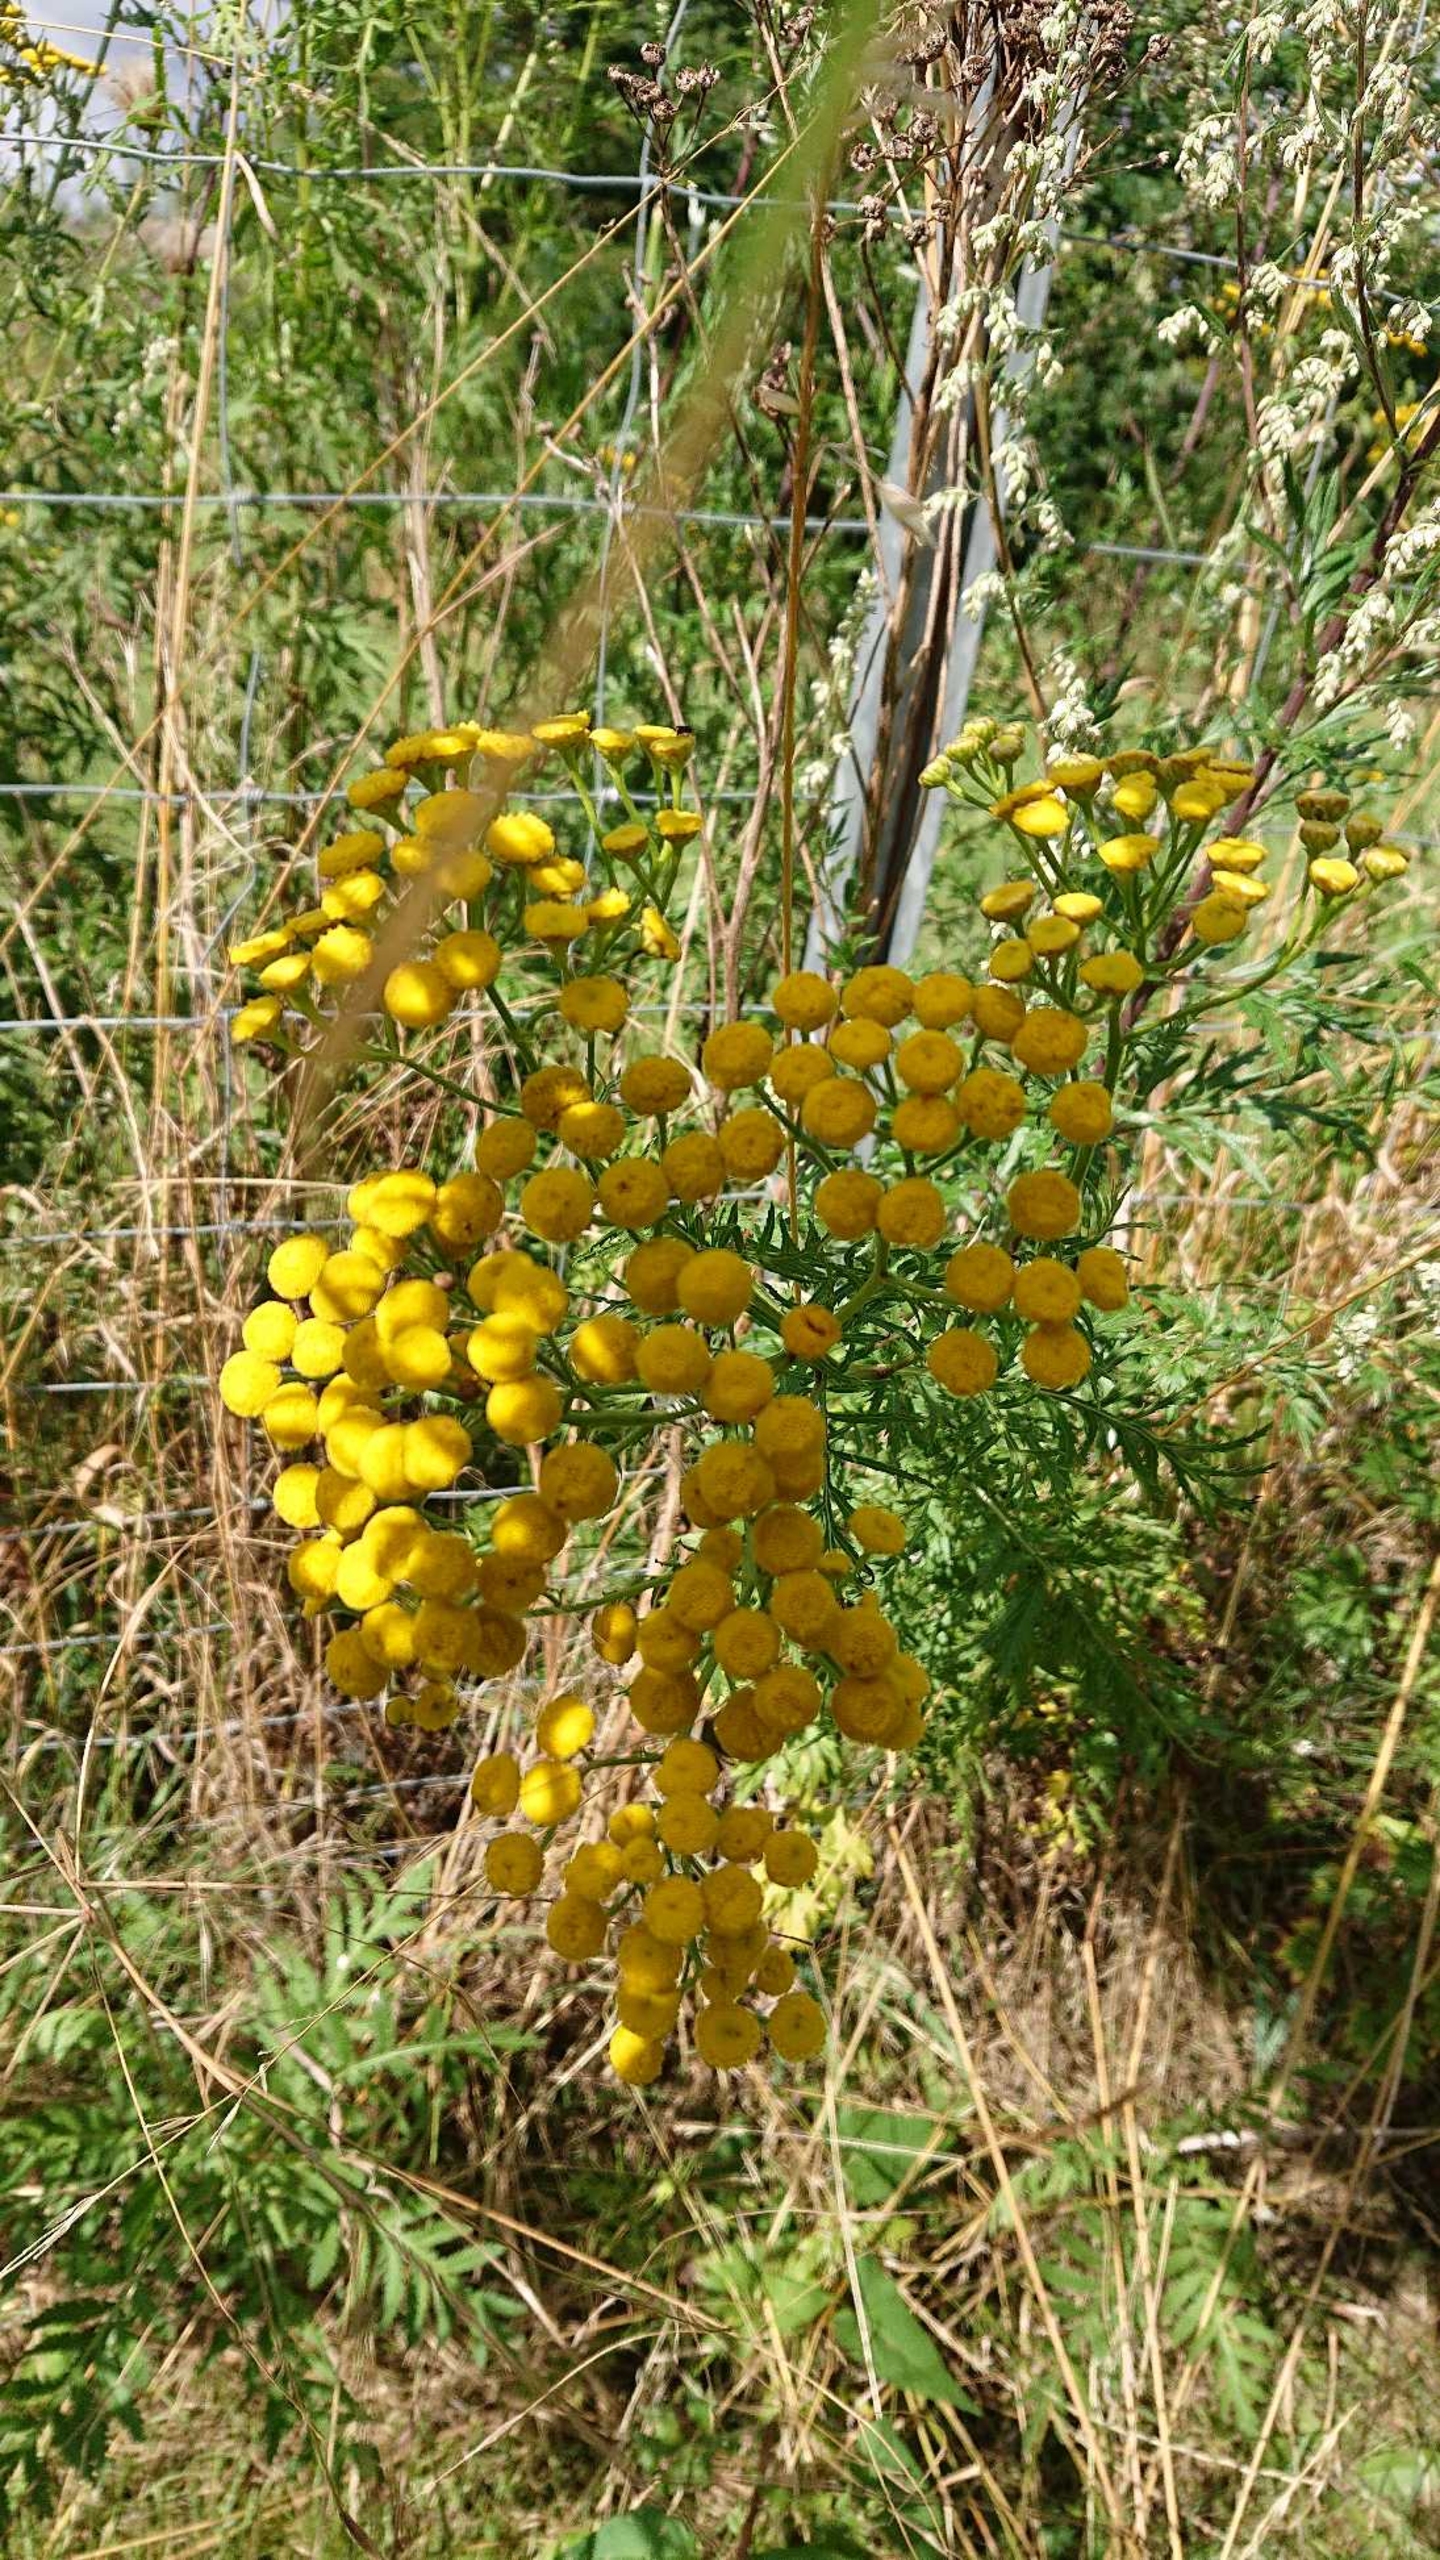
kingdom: Plantae
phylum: Tracheophyta
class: Magnoliopsida
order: Asterales
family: Asteraceae
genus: Tanacetum
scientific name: Tanacetum vulgare
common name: Rejnfan
